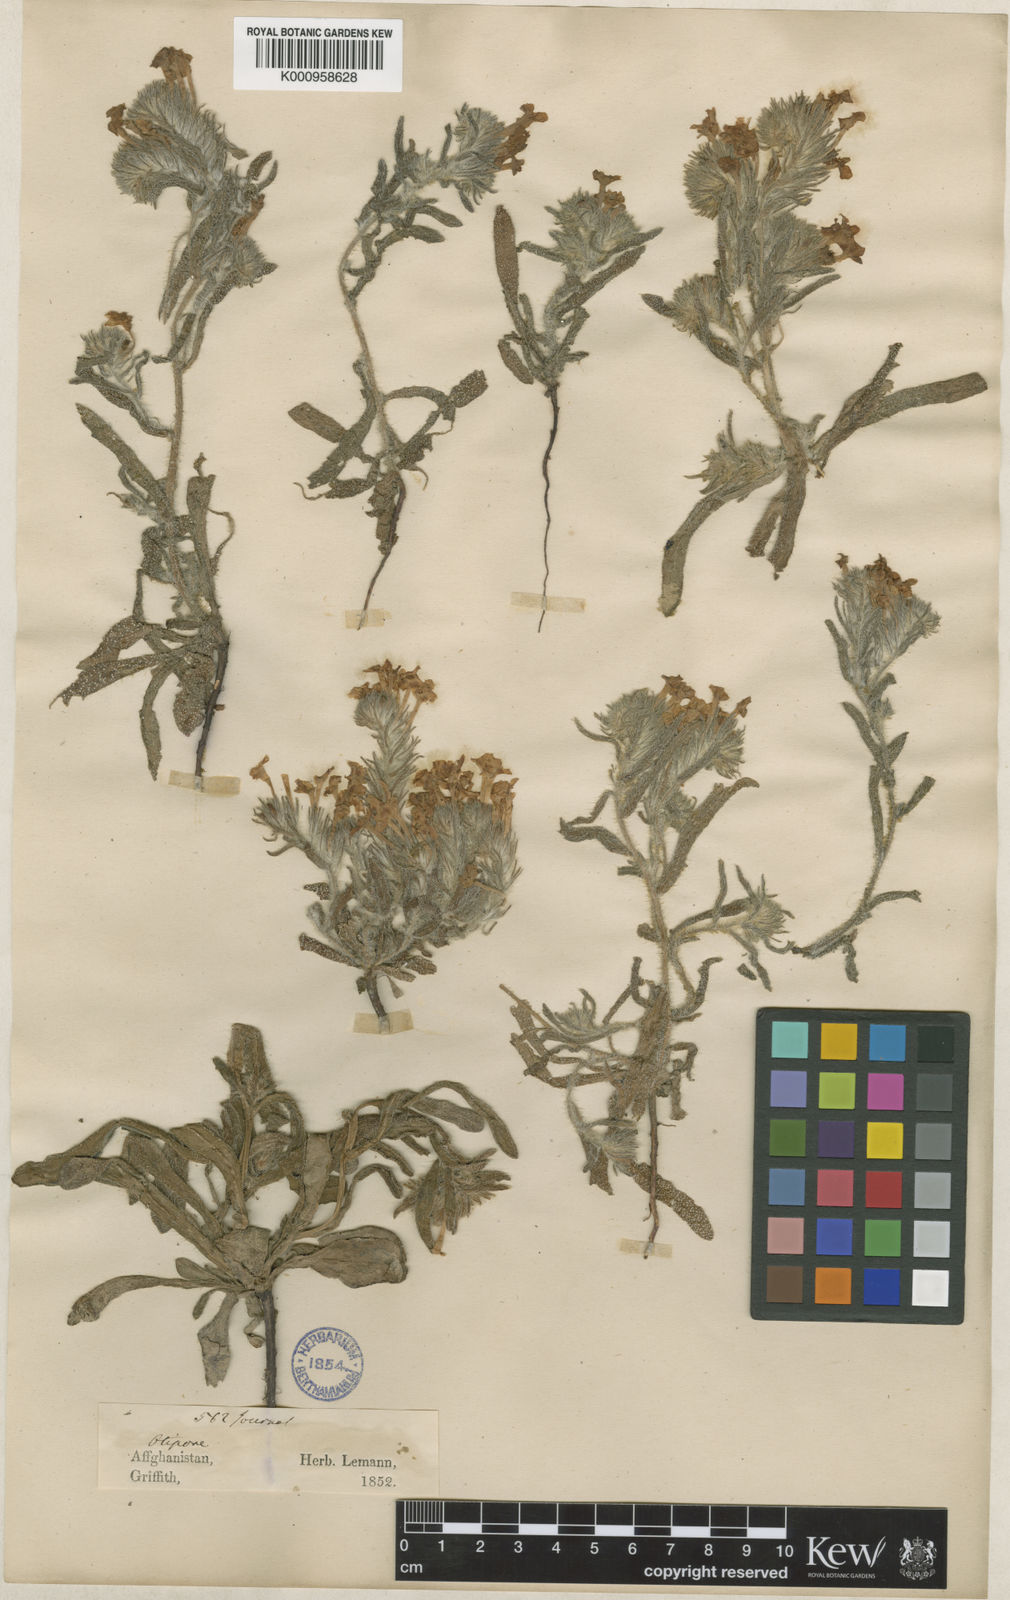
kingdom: Plantae
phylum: Tracheophyta
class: Magnoliopsida
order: Boraginales
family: Boraginaceae
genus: Arnebia
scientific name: Arnebia guttata
